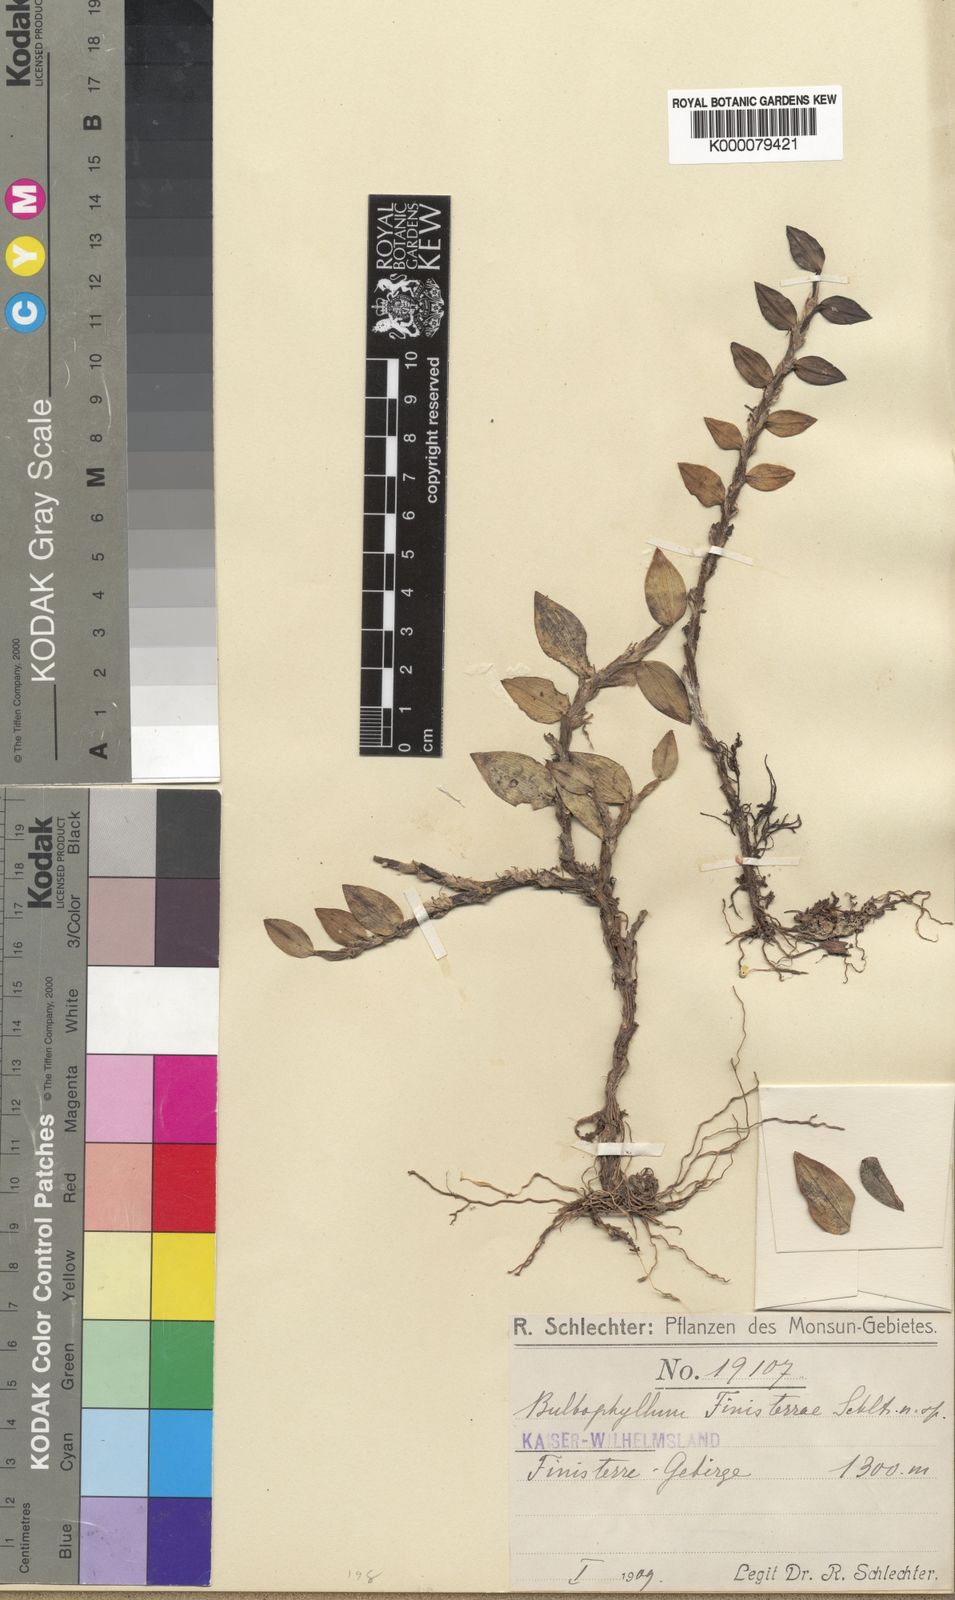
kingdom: Plantae
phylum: Tracheophyta
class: Liliopsida
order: Asparagales
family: Orchidaceae
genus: Bulbophyllum
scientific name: Bulbophyllum finisterrae
